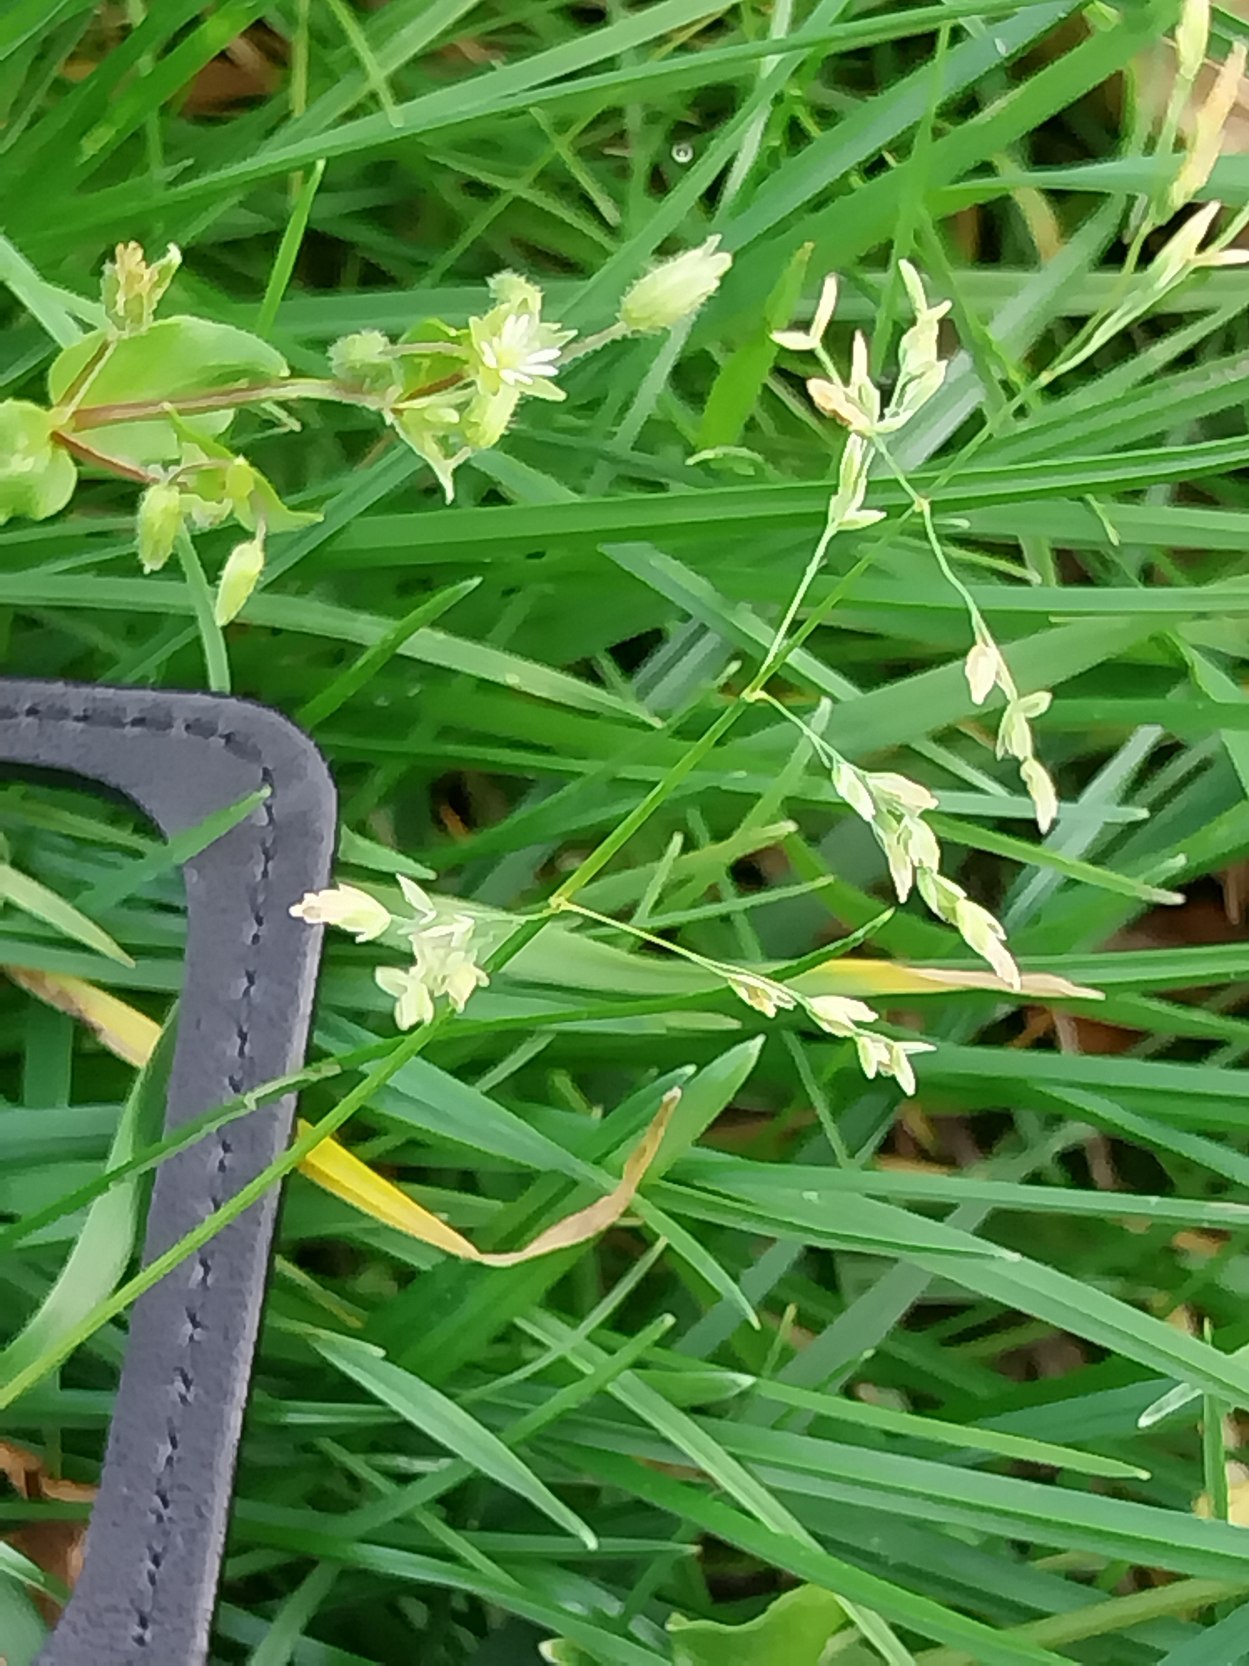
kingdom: Plantae
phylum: Tracheophyta
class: Liliopsida
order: Poales
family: Poaceae
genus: Poa
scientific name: Poa annua
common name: Enårig rapgræs
